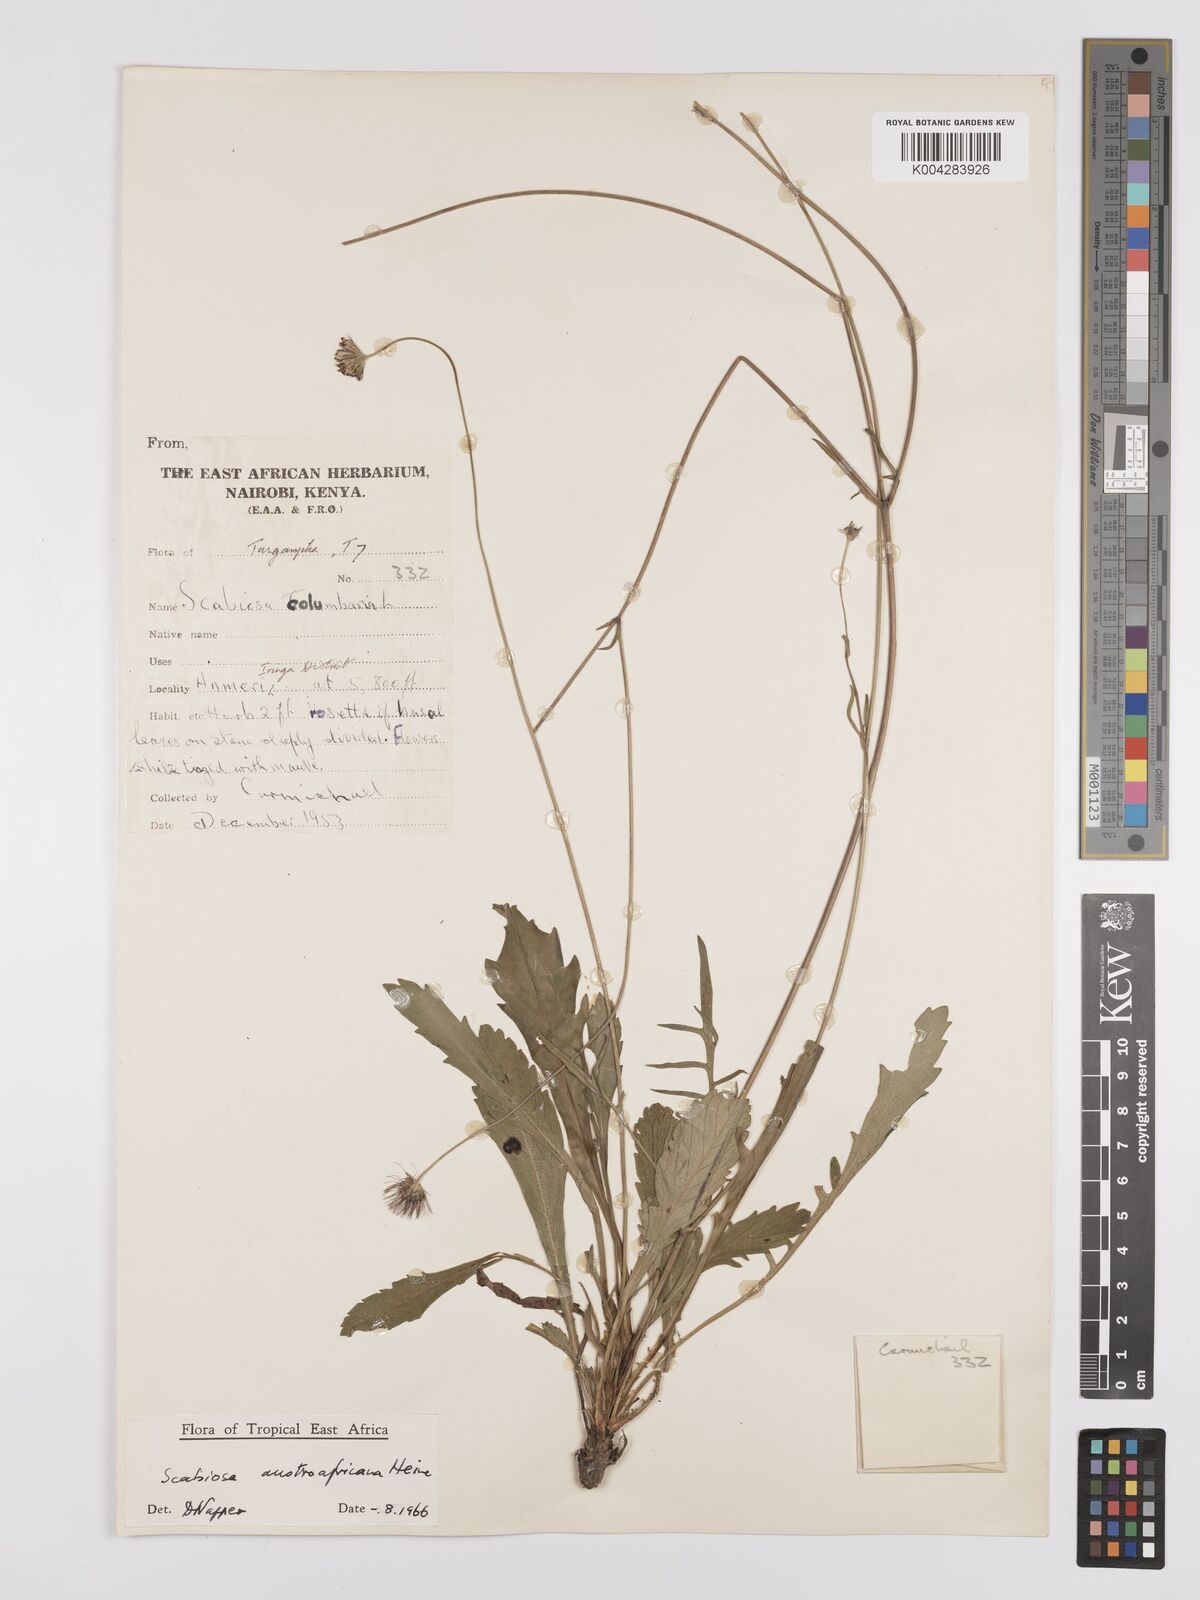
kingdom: Plantae
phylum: Tracheophyta
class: Magnoliopsida
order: Dipsacales
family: Caprifoliaceae
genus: Scabiosa
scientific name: Scabiosa austroafricana
